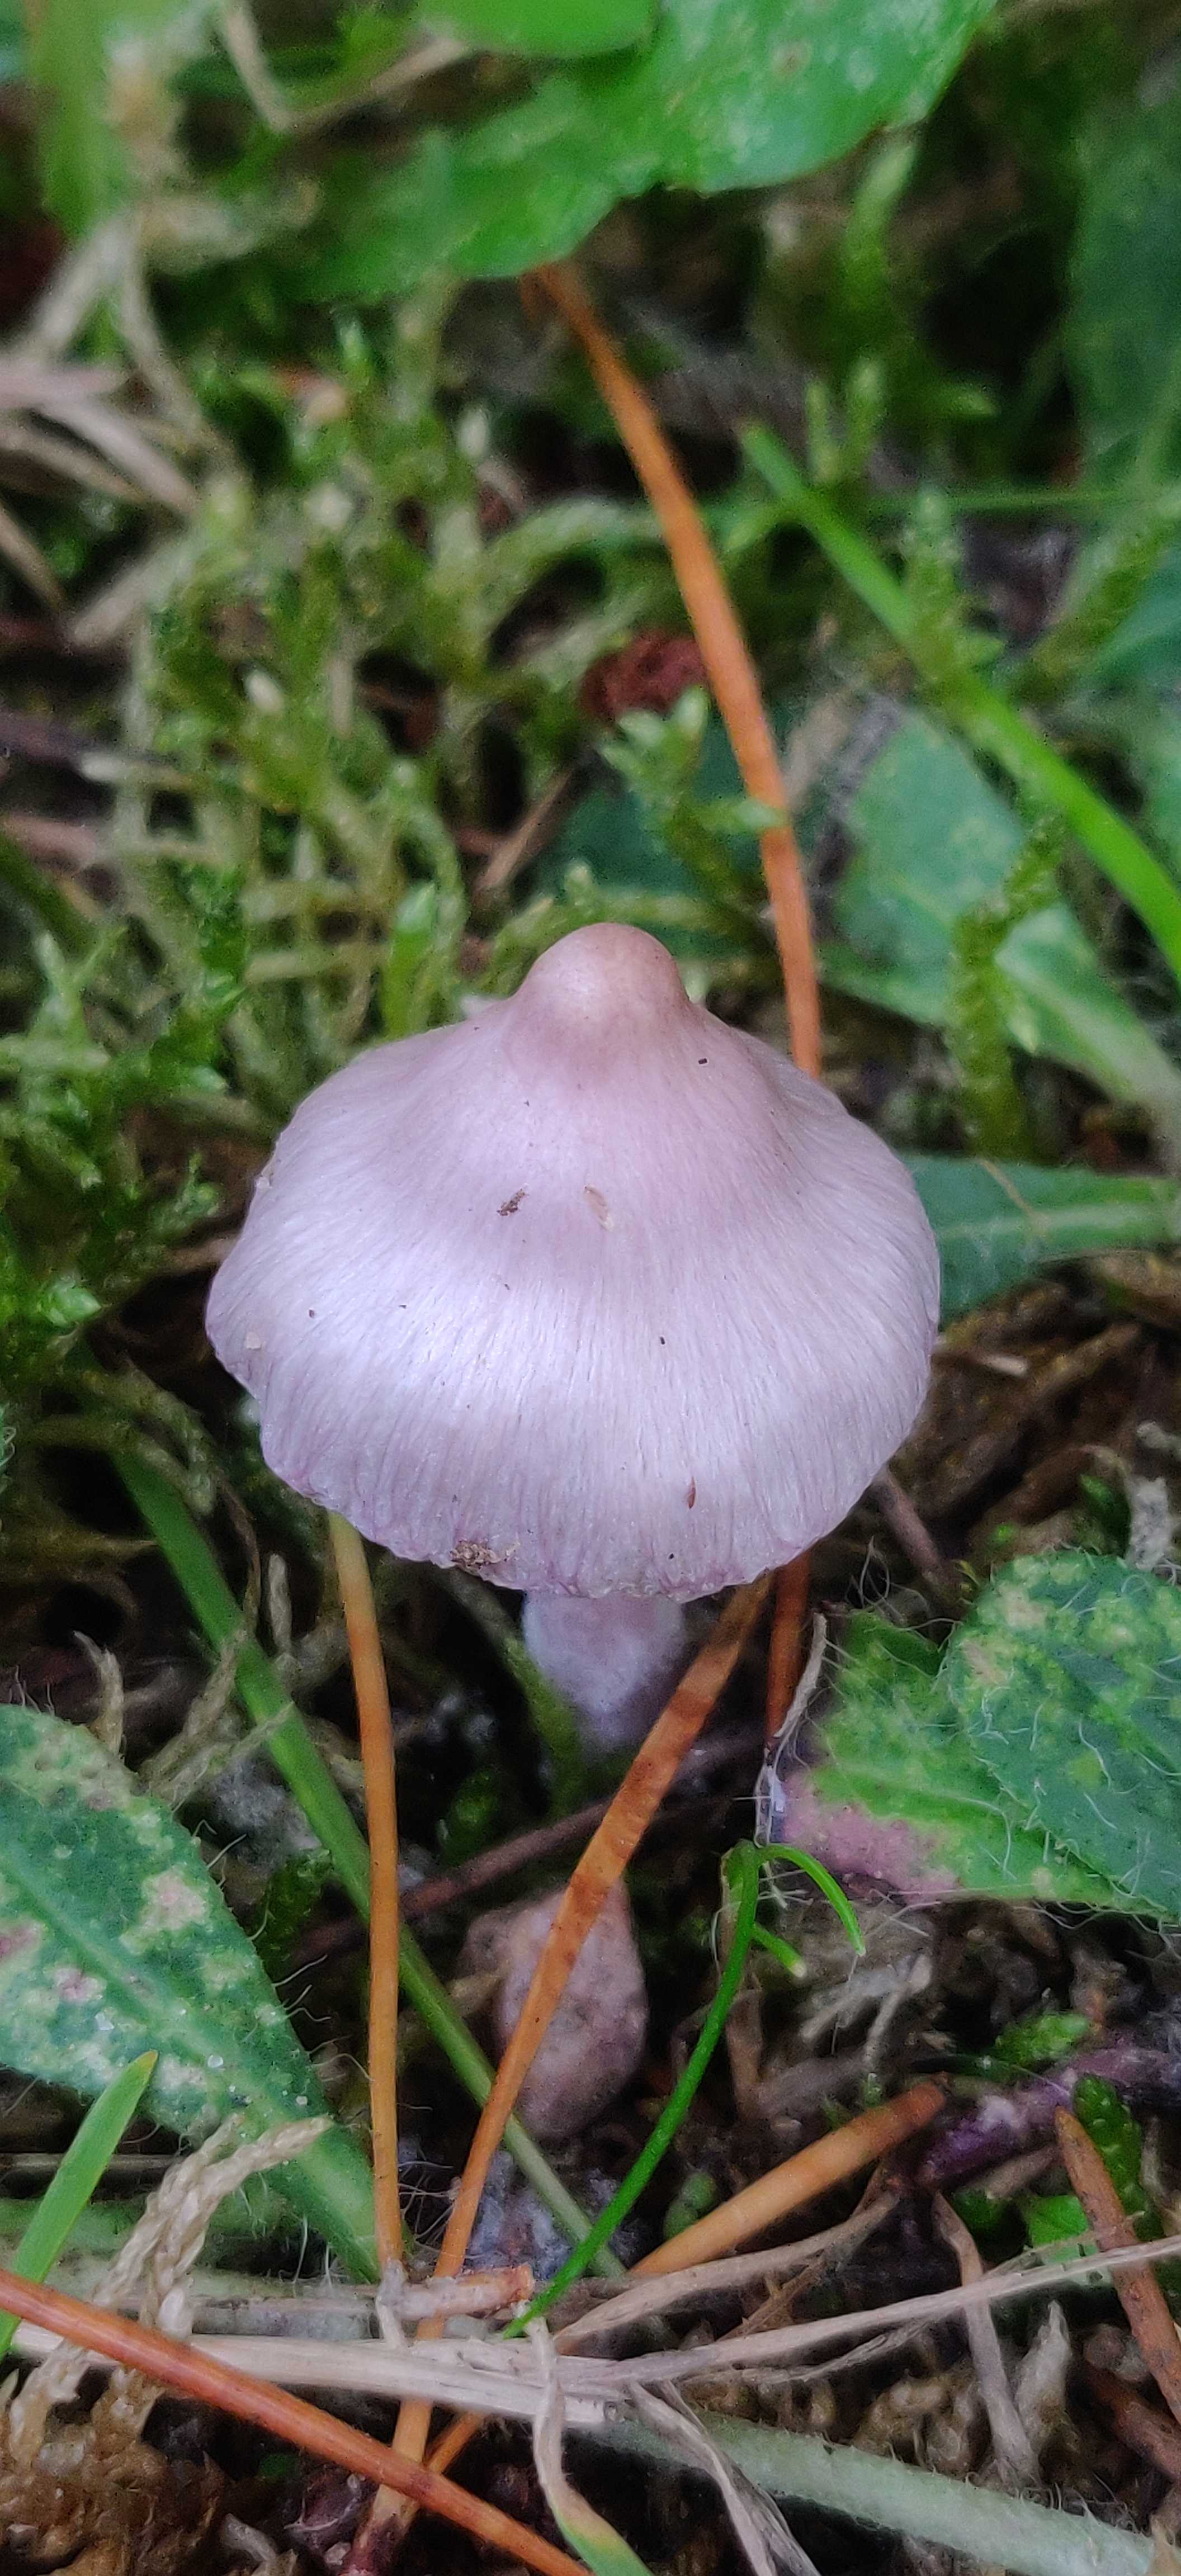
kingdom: Fungi
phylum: Basidiomycota
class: Agaricomycetes
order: Agaricales
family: Inocybaceae
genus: Inocybe
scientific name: Inocybe geophylla
